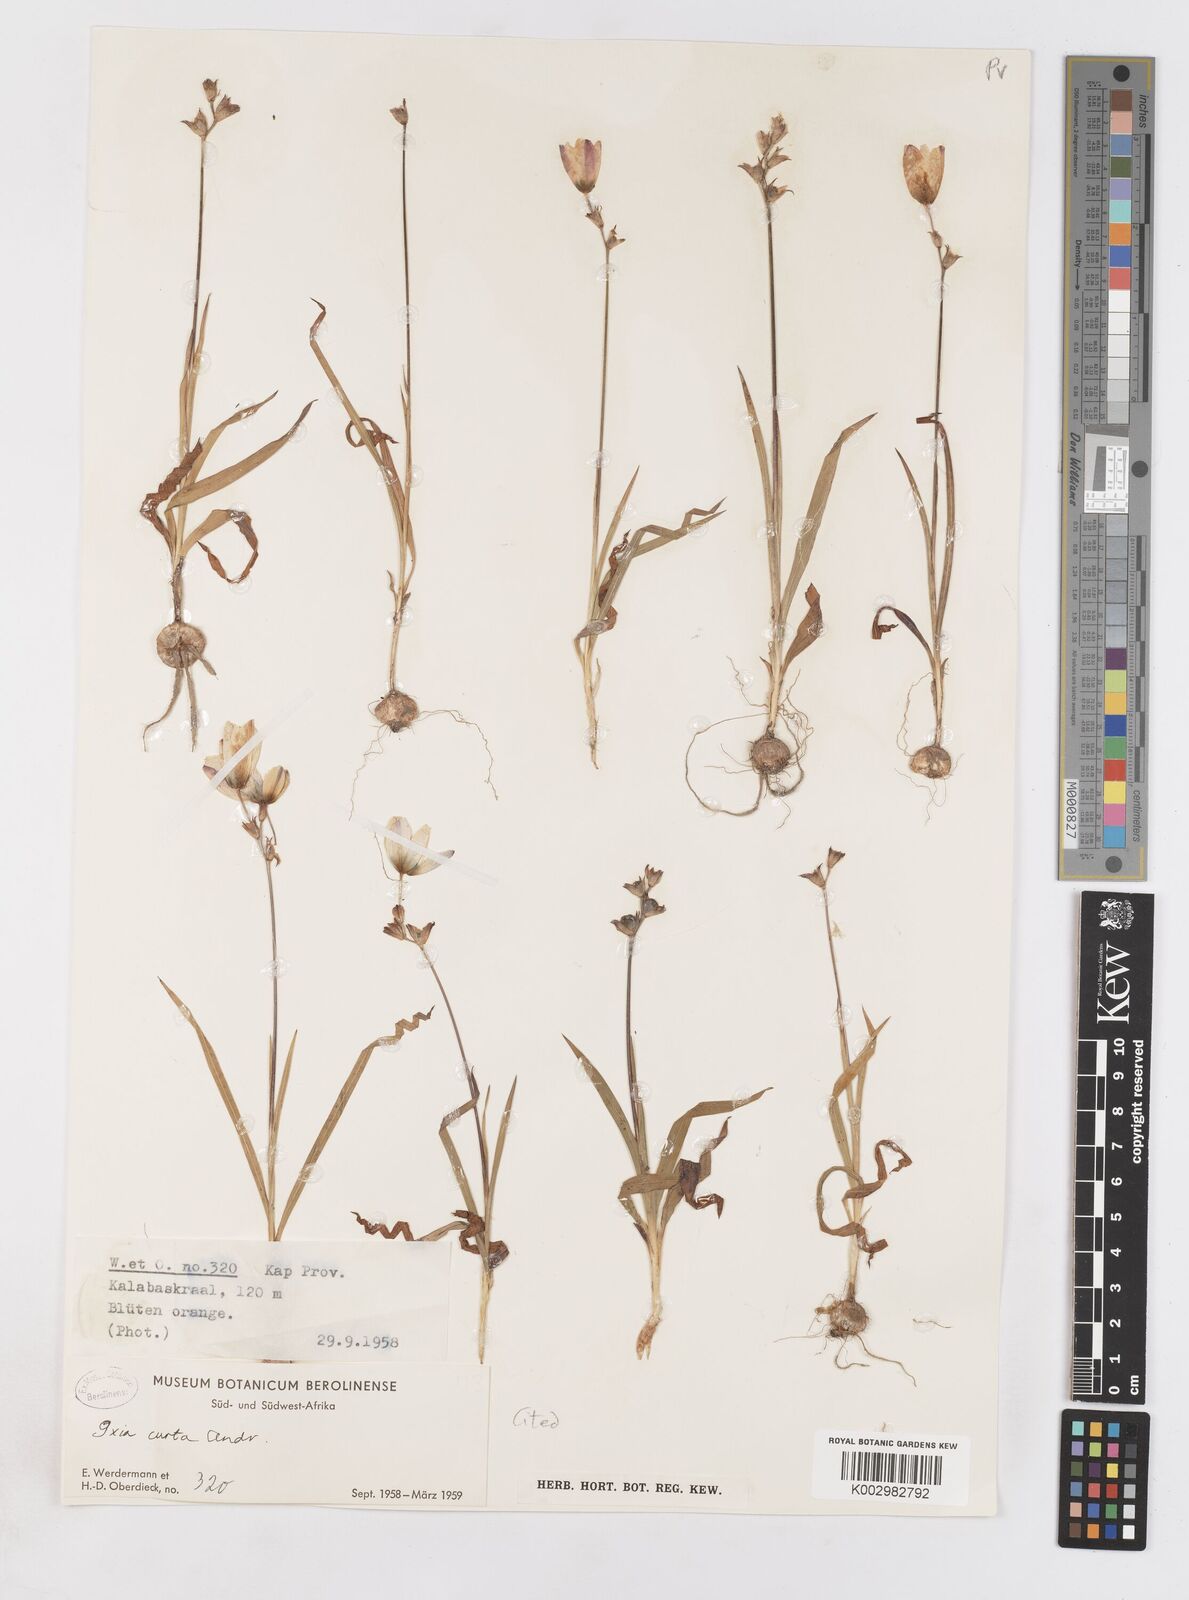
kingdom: Plantae
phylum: Tracheophyta
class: Liliopsida
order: Asparagales
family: Iridaceae
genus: Ixia
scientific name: Ixia curta
